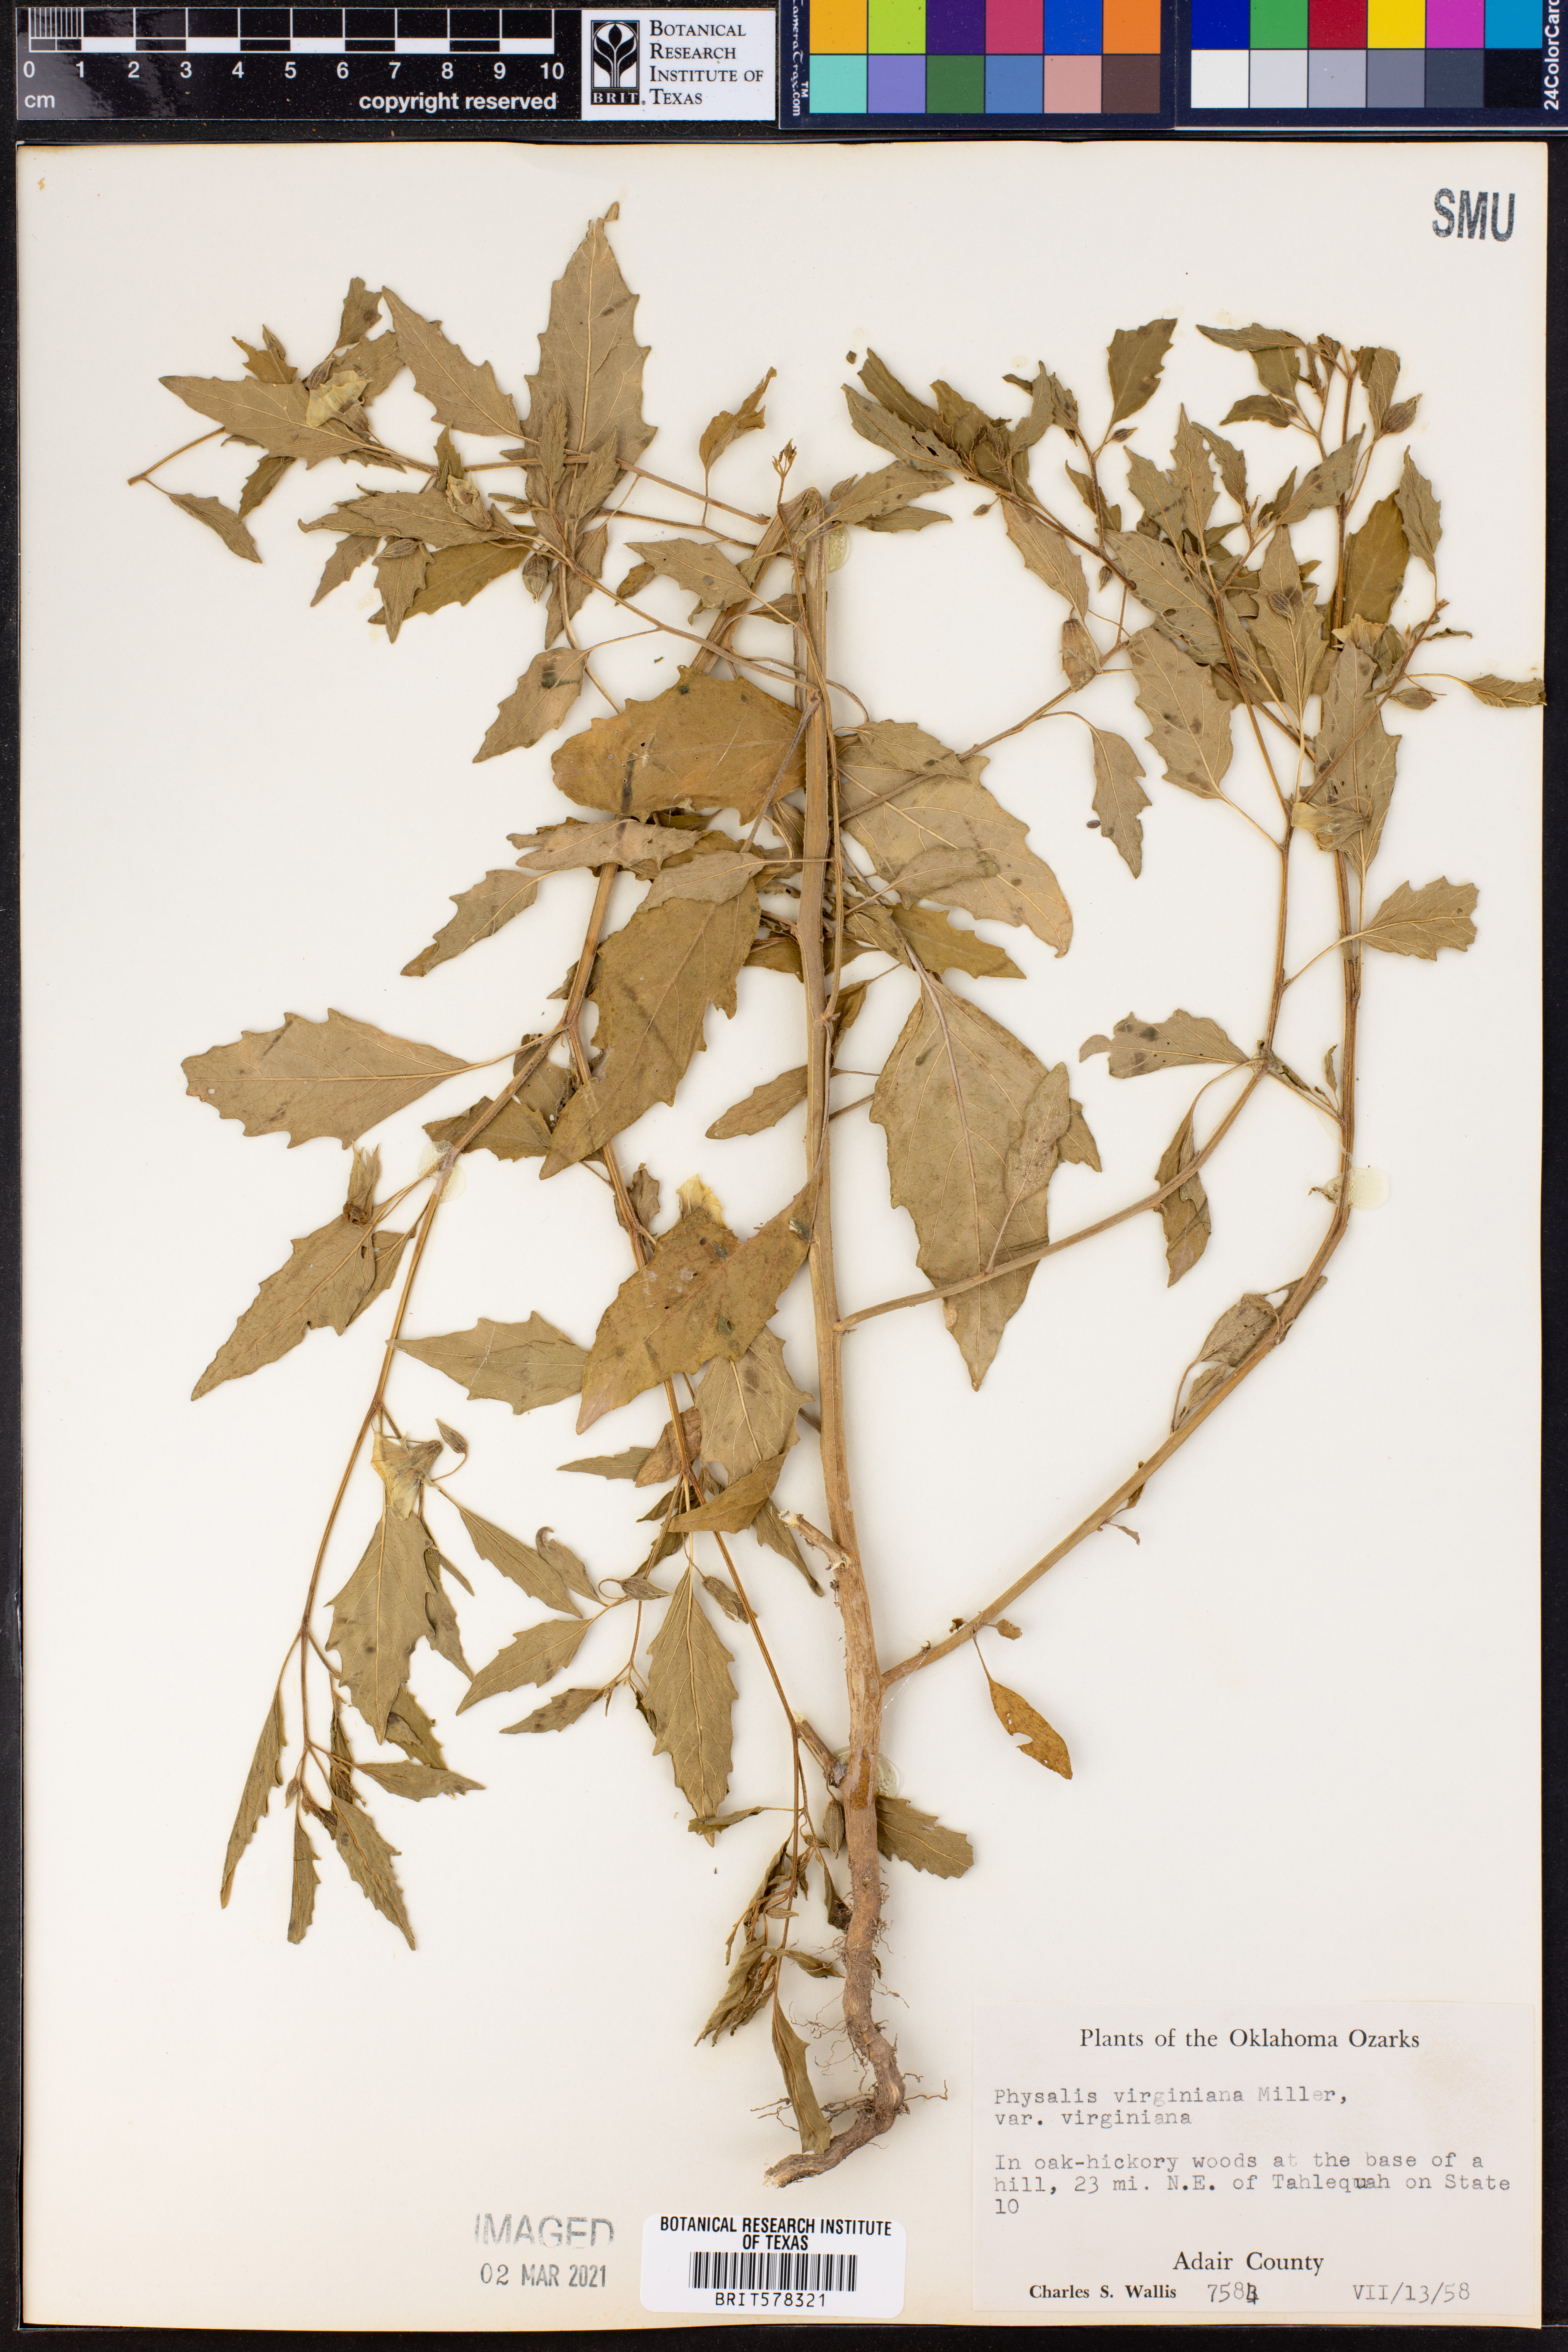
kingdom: Plantae
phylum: Tracheophyta
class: Magnoliopsida
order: Solanales
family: Solanaceae
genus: Physalis
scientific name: Physalis virginiana
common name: Virginia ground-cherry
